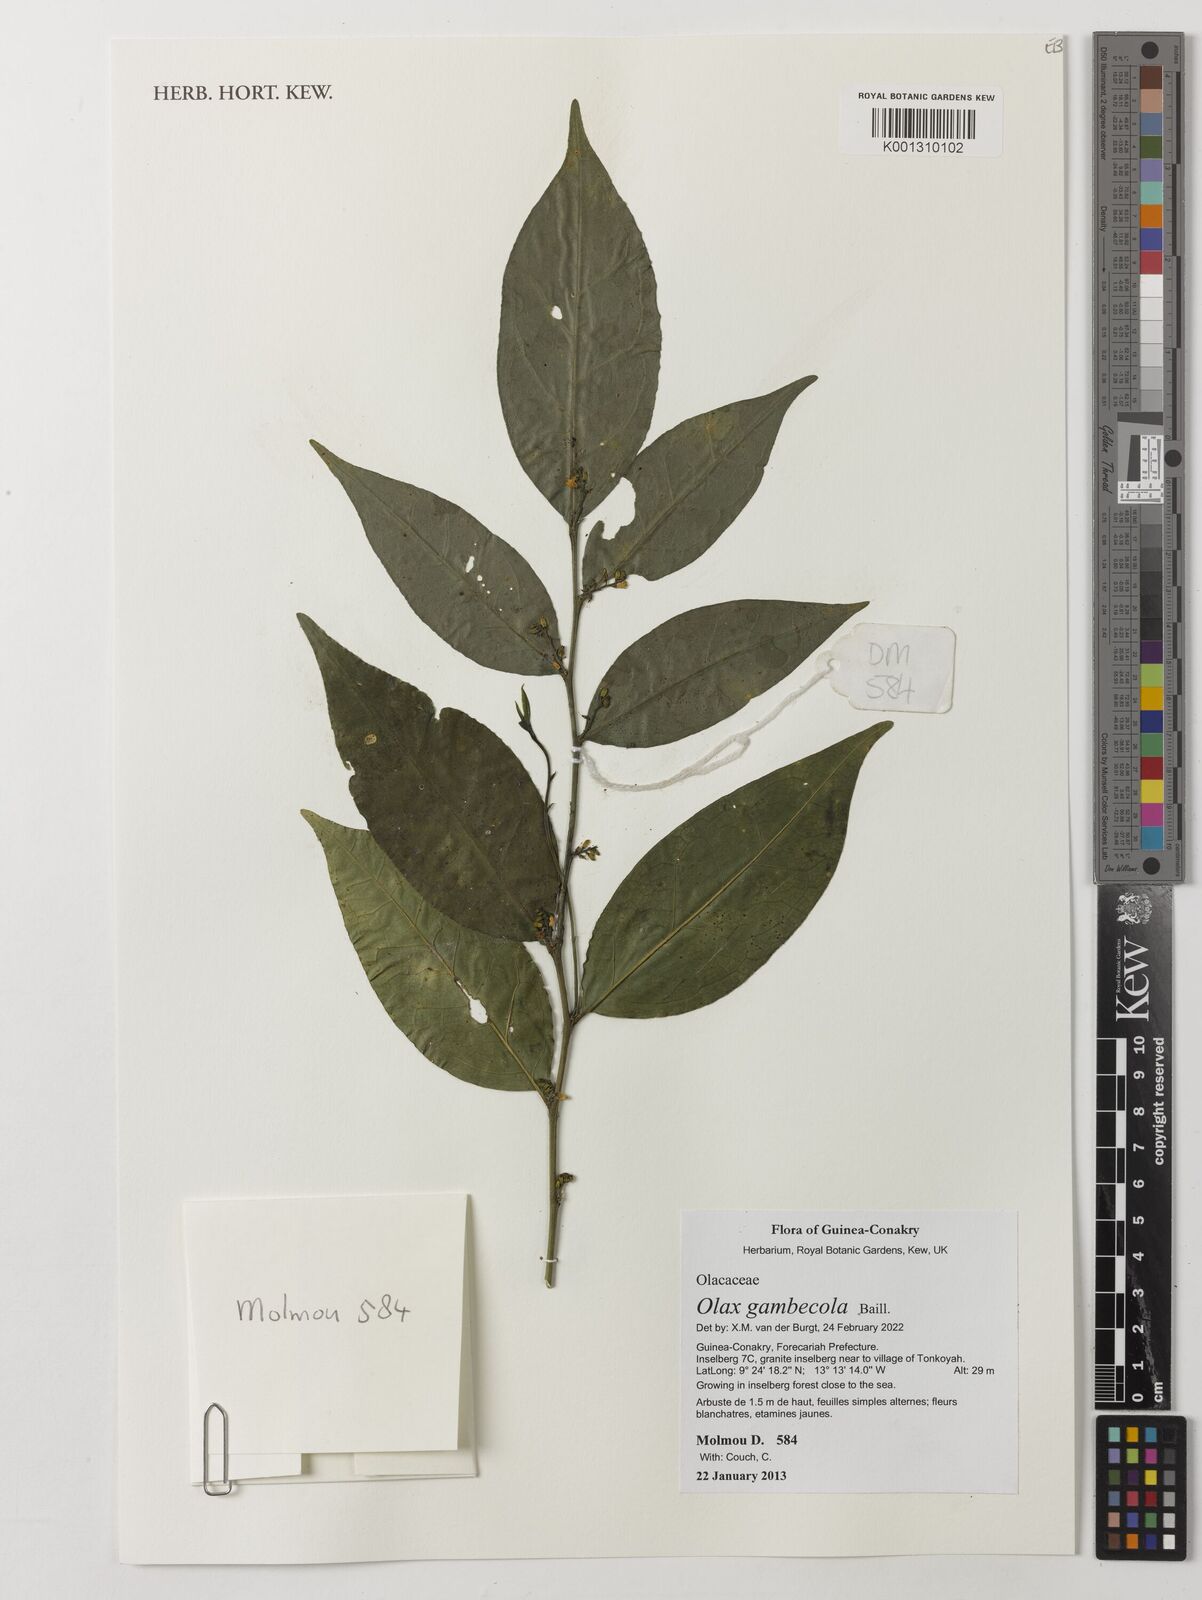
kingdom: Plantae
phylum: Tracheophyta
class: Magnoliopsida
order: Santalales
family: Olacaceae
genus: Olax
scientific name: Olax gambecola
